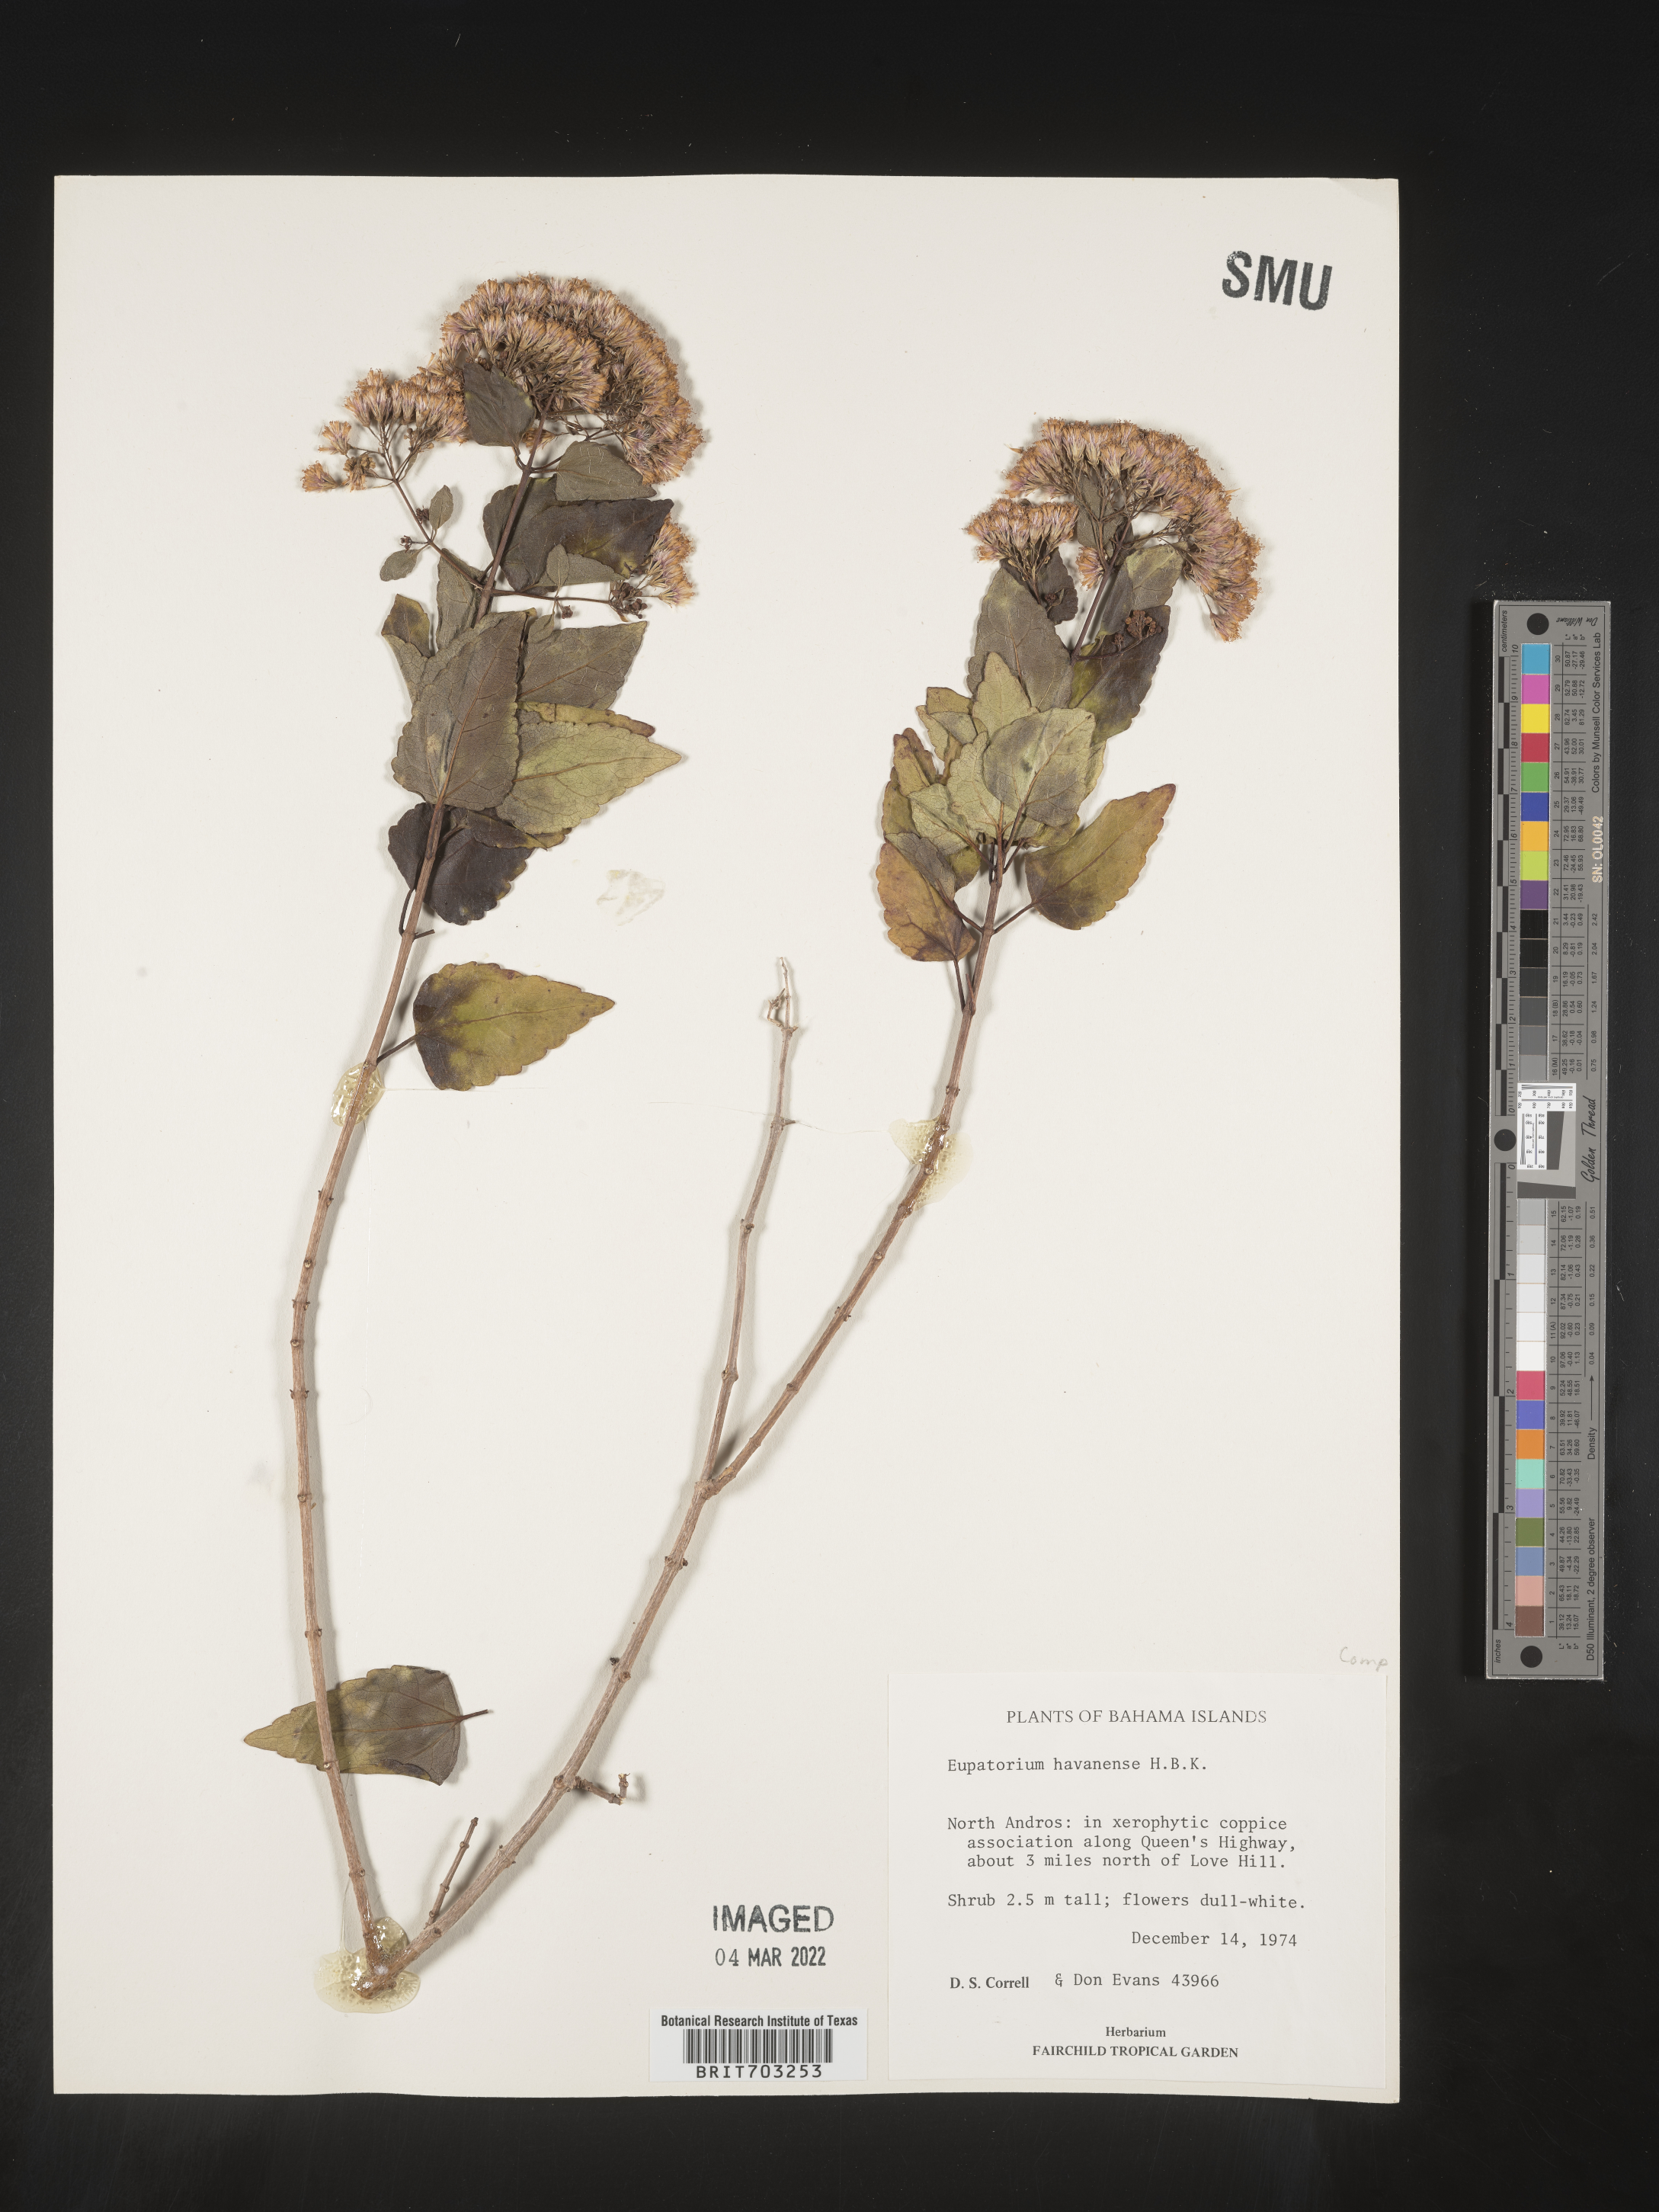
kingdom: Plantae
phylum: Tracheophyta
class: Magnoliopsida
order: Asterales
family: Asteraceae
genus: Eupatorium
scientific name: Eupatorium
